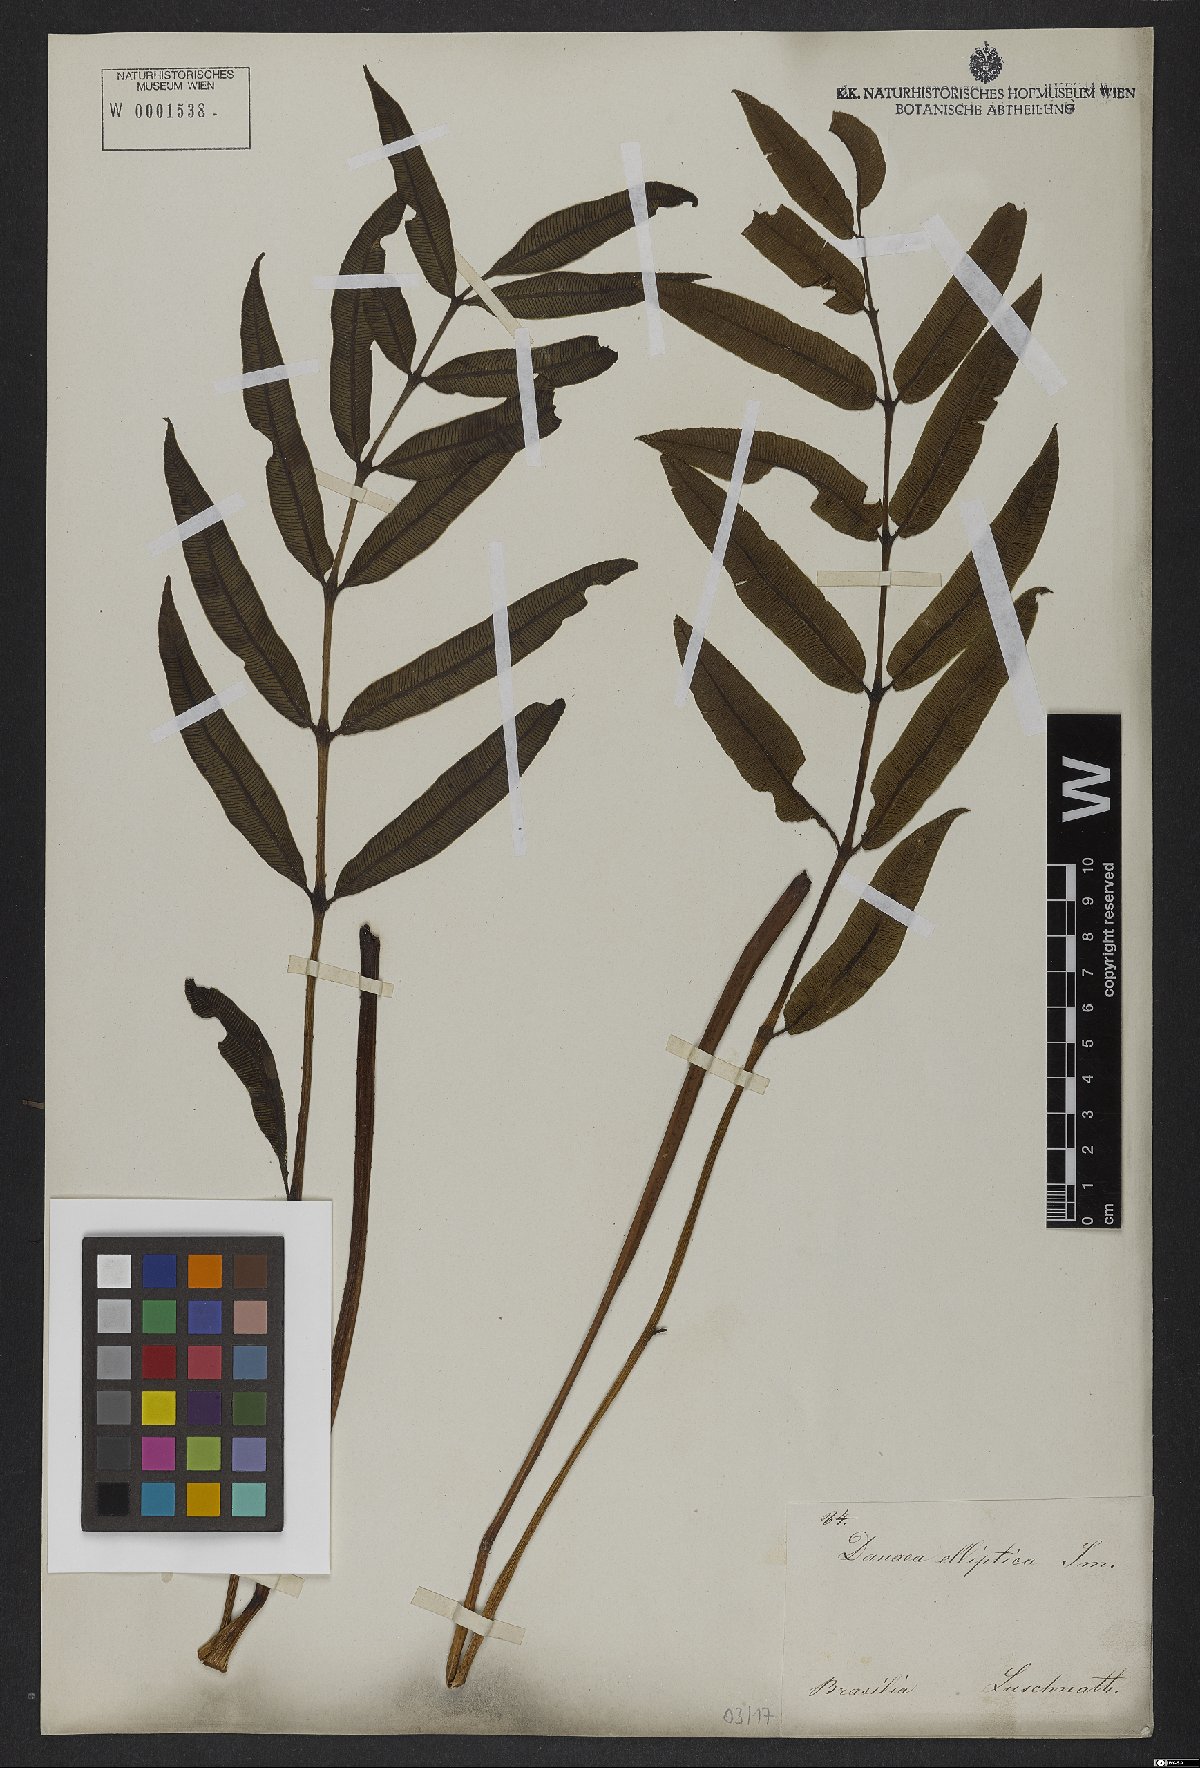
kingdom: Plantae
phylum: Tracheophyta
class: Polypodiopsida
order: Marattiales
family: Marattiaceae
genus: Danaea
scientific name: Danaea nodosa
